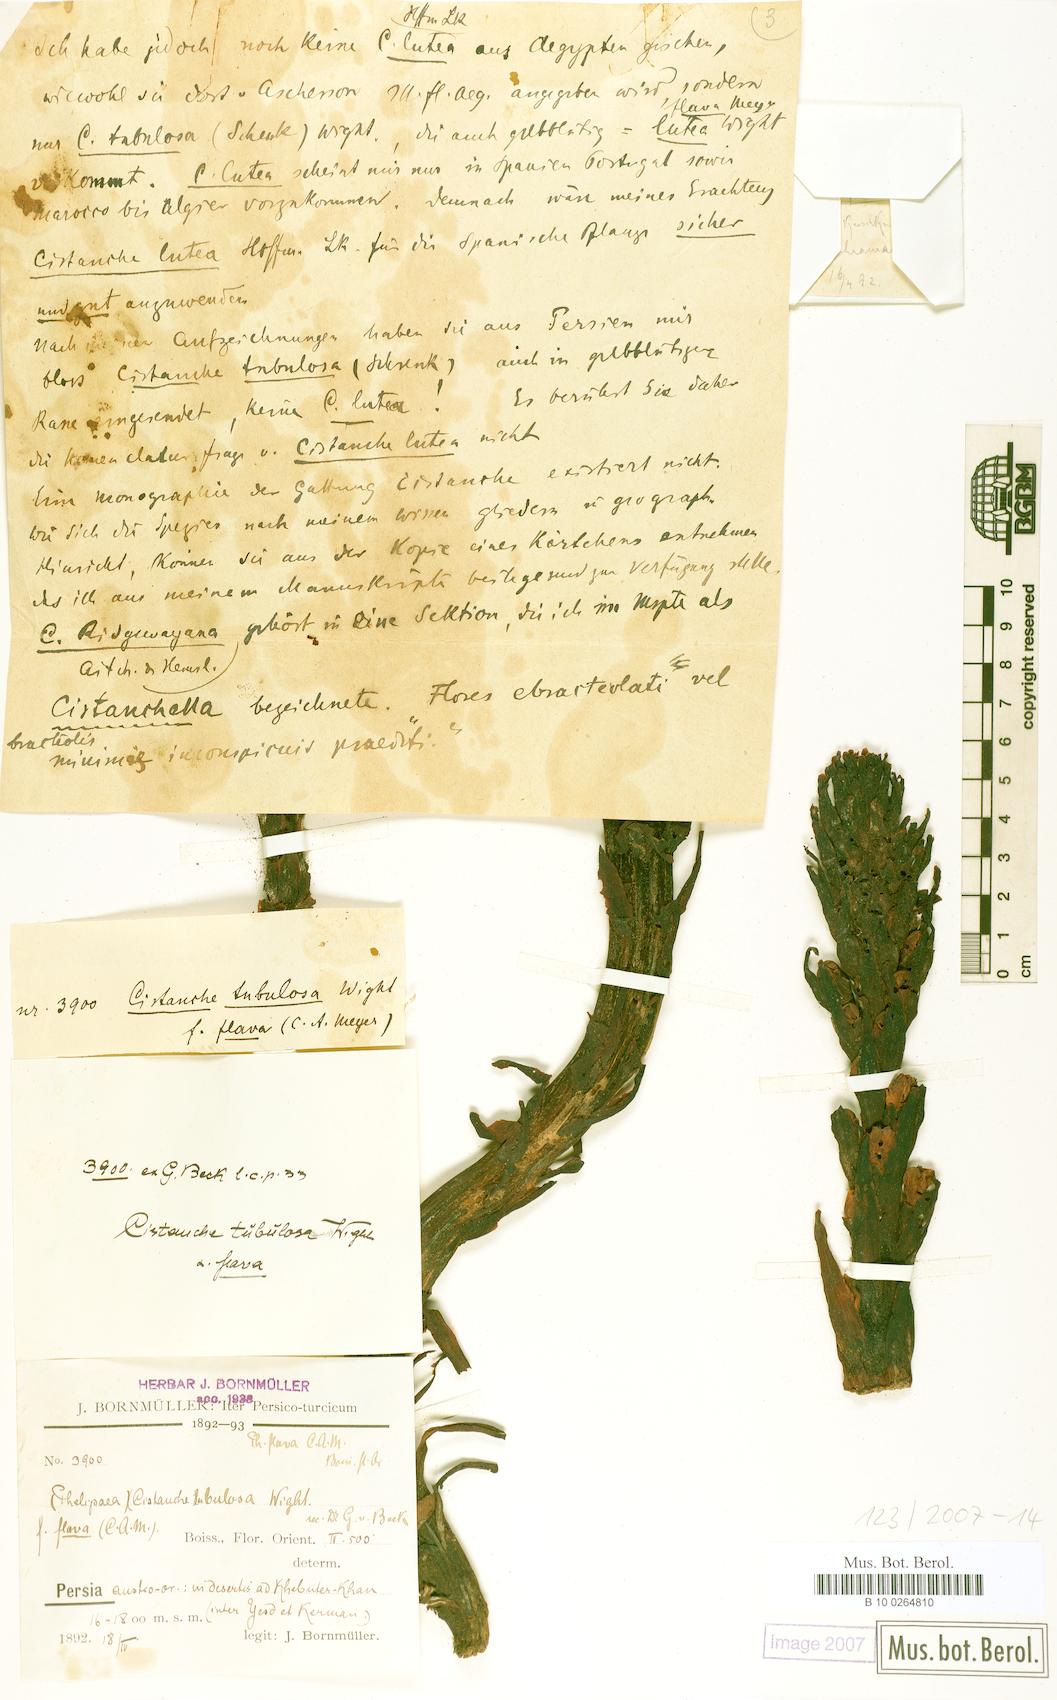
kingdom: Plantae
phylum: Tracheophyta
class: Magnoliopsida
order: Lamiales
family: Orobanchaceae
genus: Cistanche
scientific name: Cistanche flava
